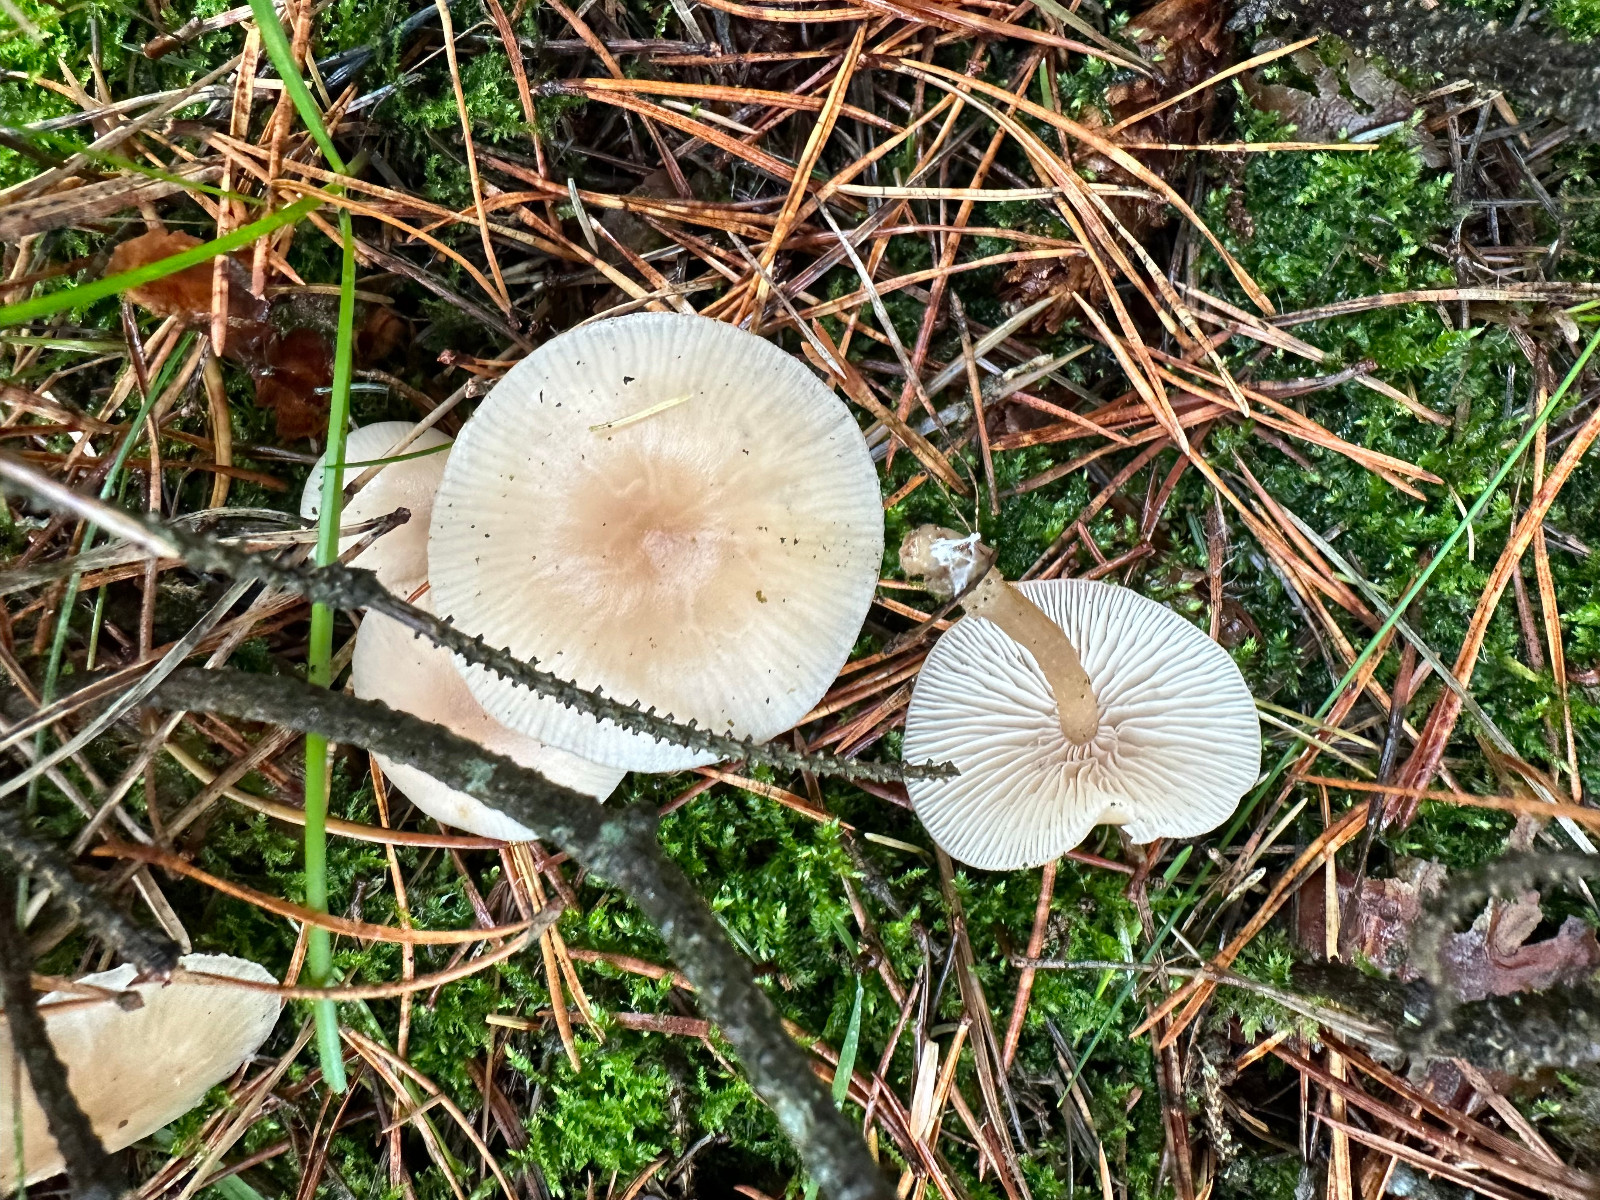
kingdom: Fungi
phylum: Basidiomycota
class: Agaricomycetes
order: Agaricales
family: Tricholomataceae
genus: Clitocybe
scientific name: Clitocybe fragrans
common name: vellugtende tragthat
